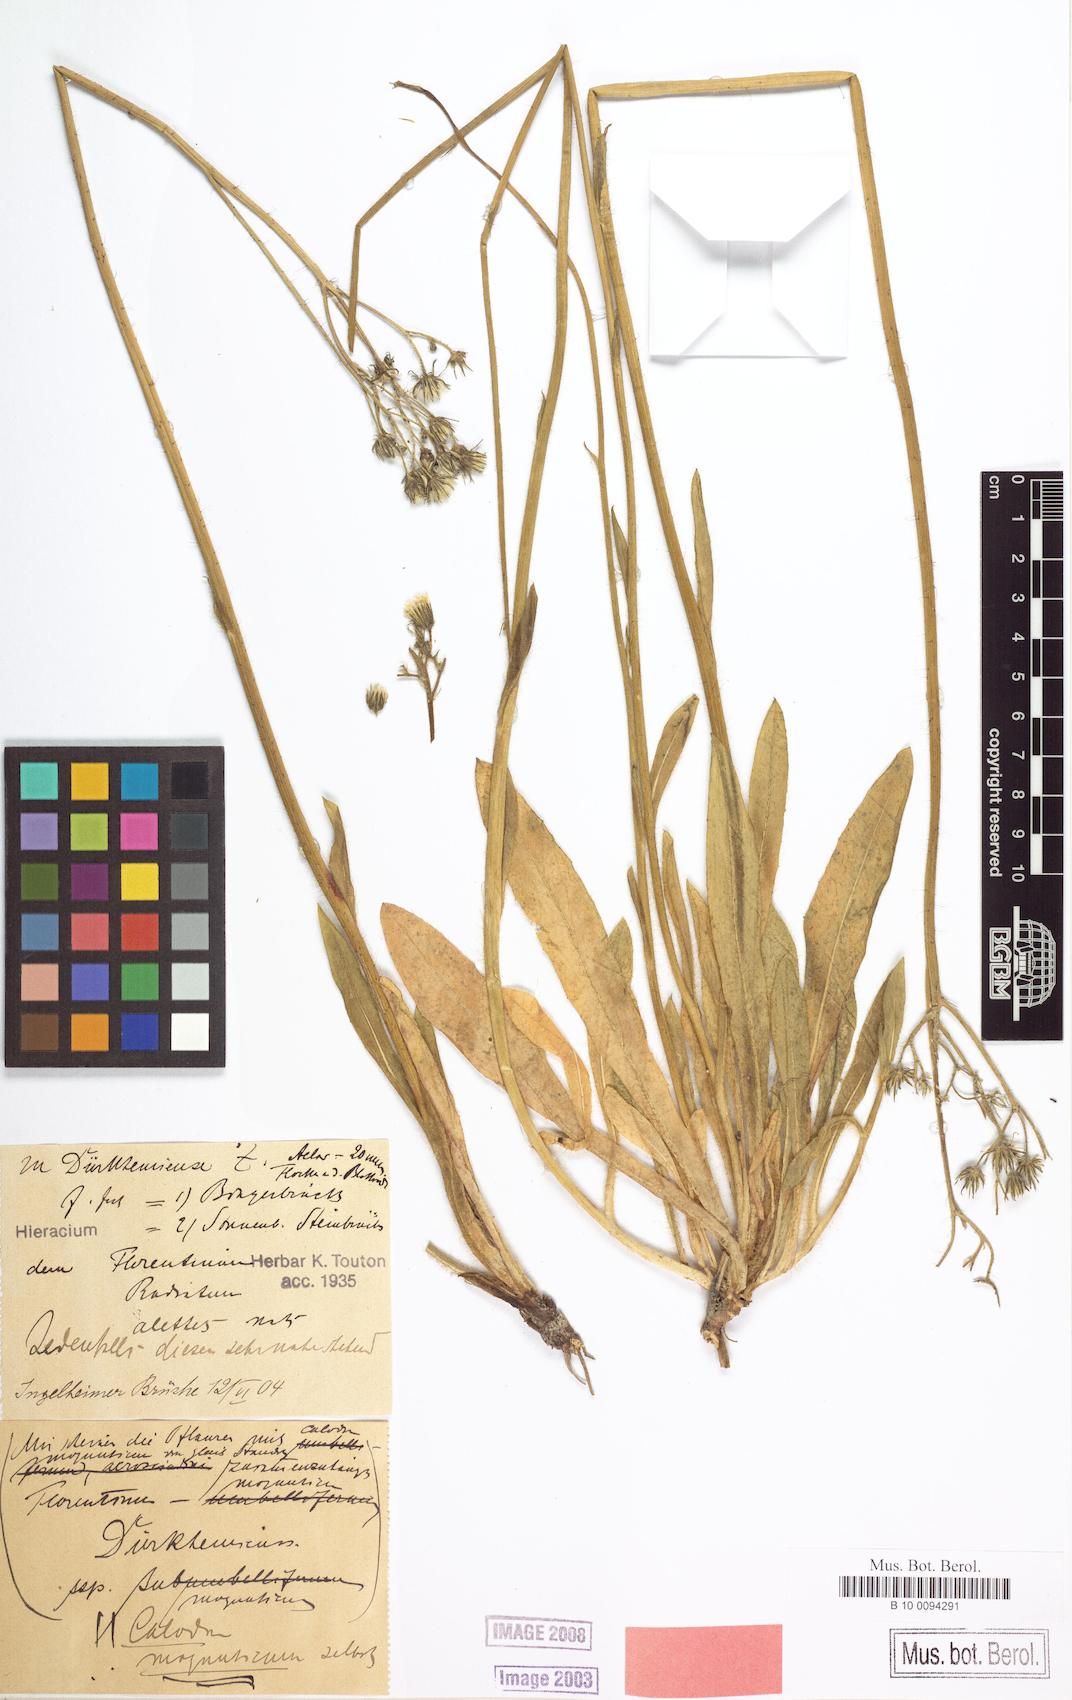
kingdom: Plantae
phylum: Tracheophyta
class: Magnoliopsida
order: Asterales
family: Asteraceae
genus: Pilosella
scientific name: Pilosella duerkhemiensis
